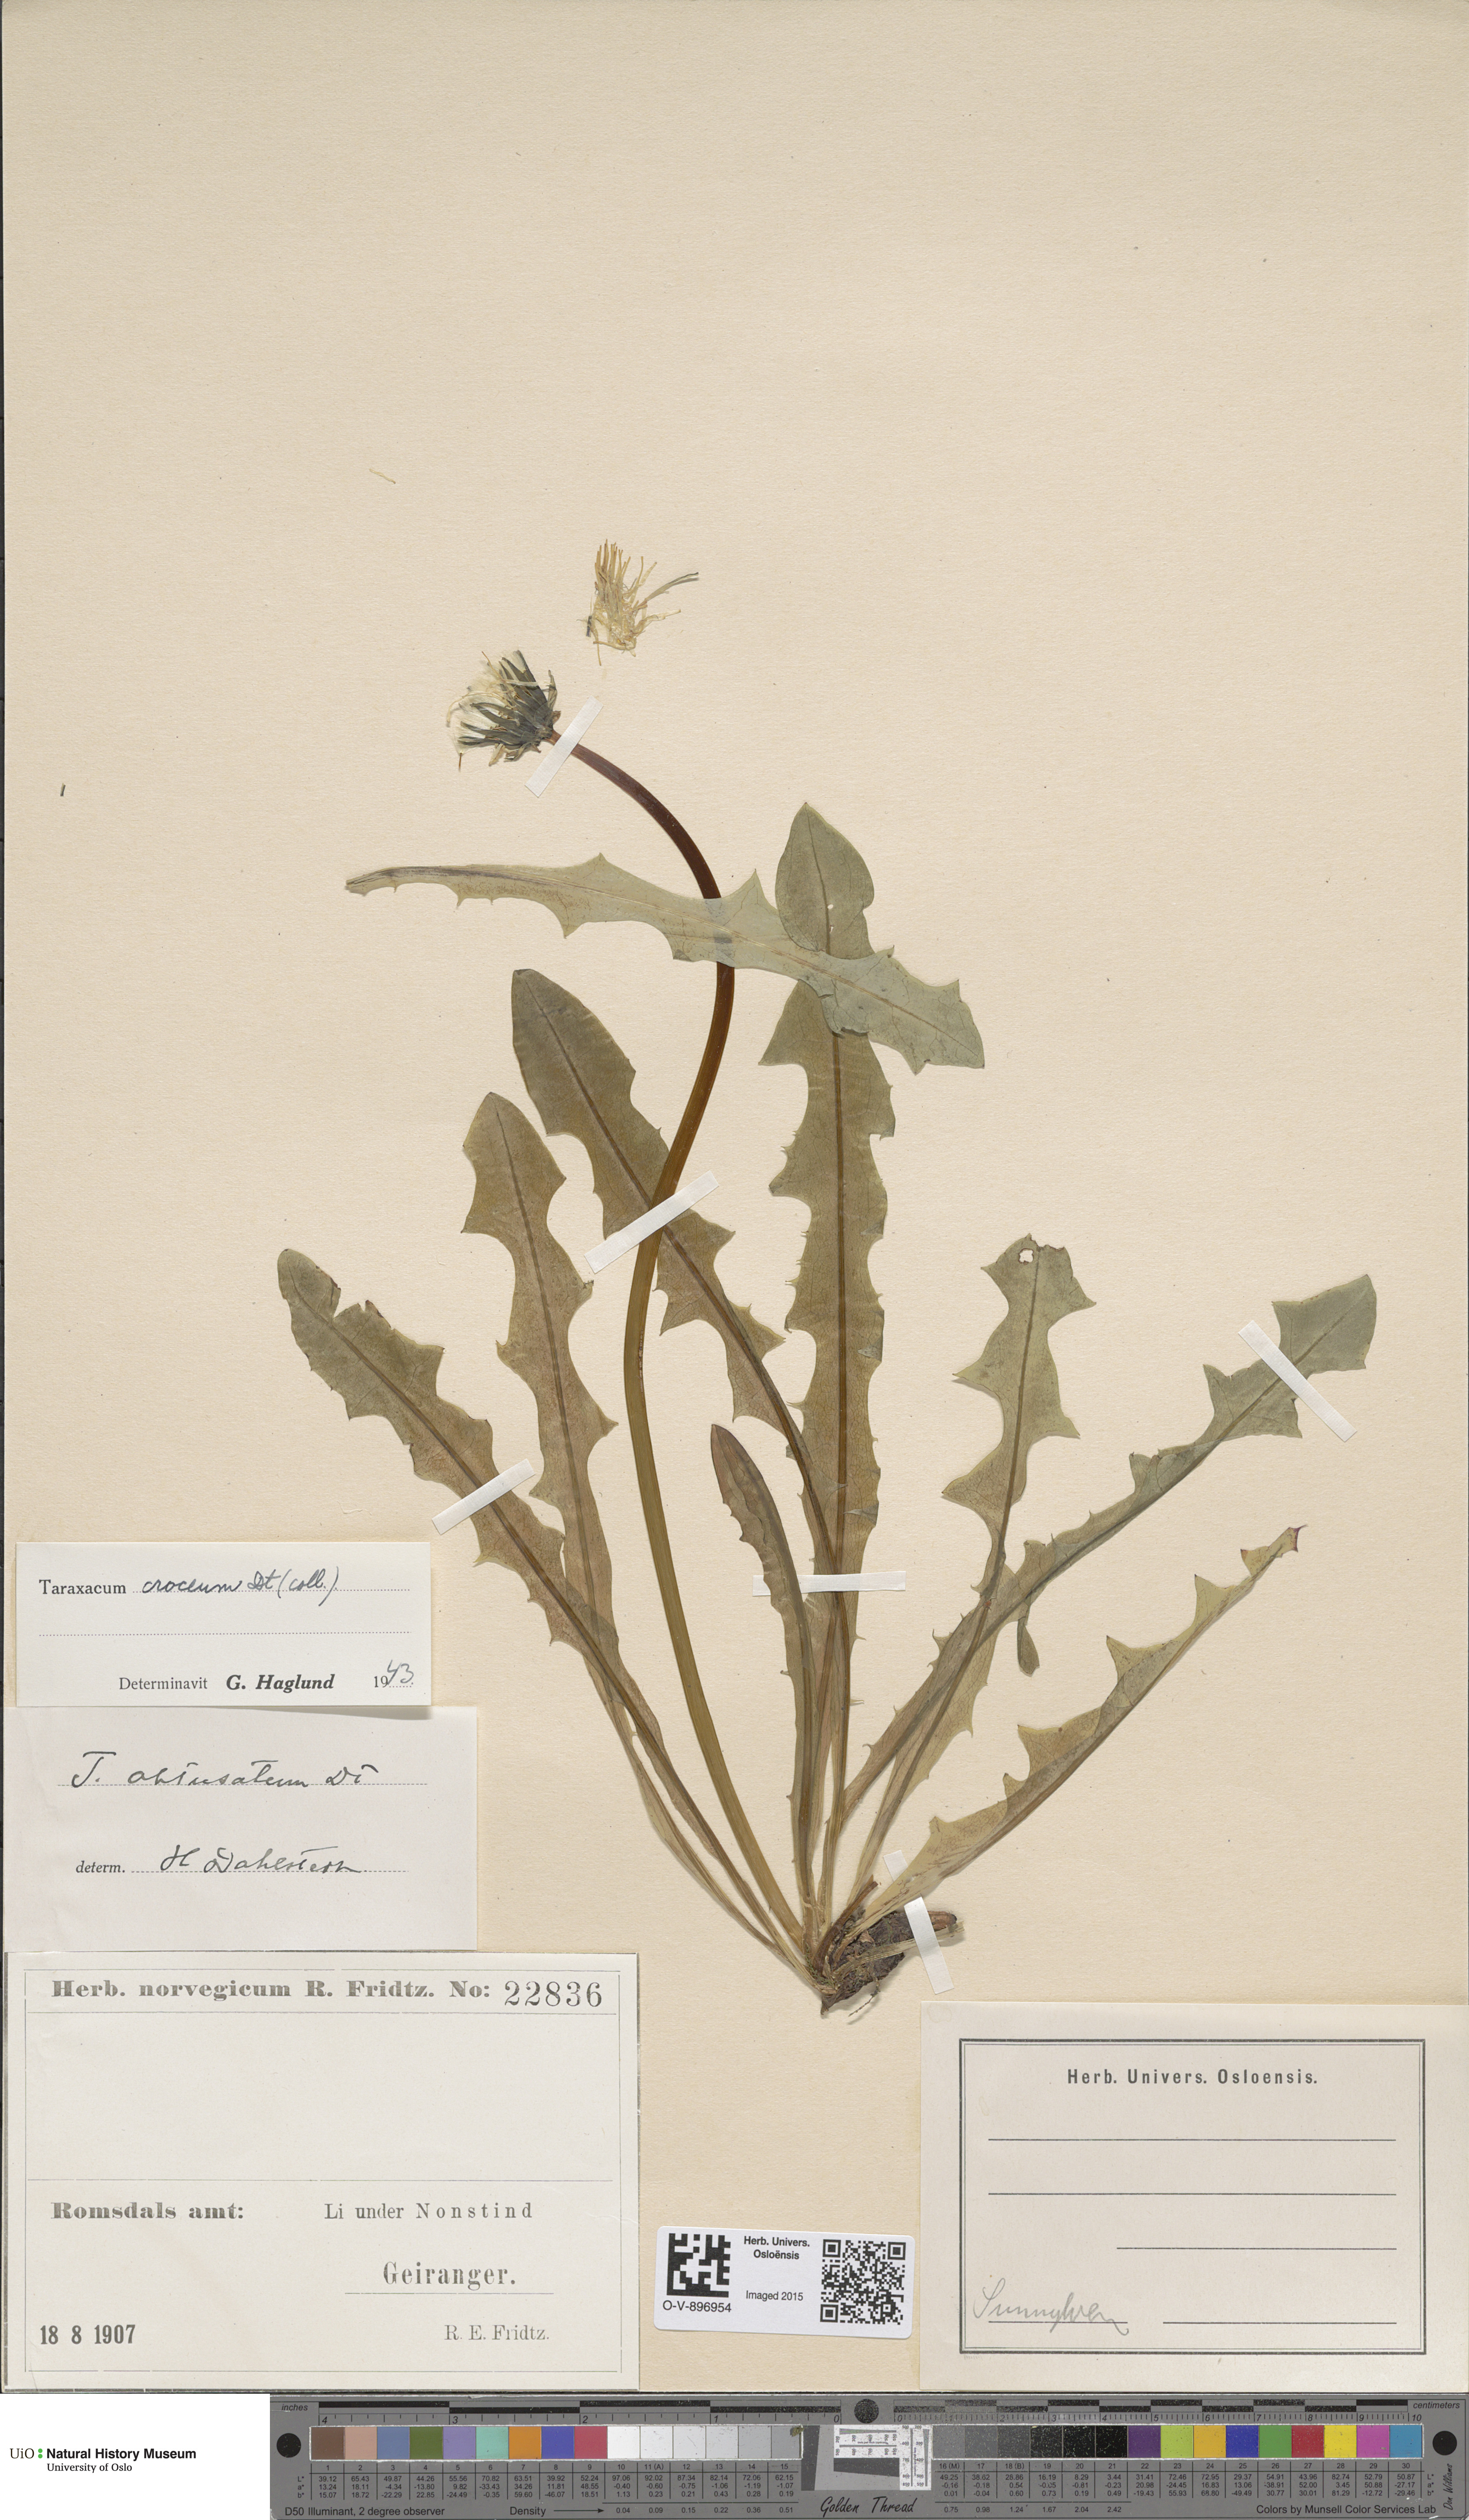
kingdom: Plantae
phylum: Tracheophyta
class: Magnoliopsida
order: Asterales
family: Asteraceae
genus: Taraxacum
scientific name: Taraxacum croceum
